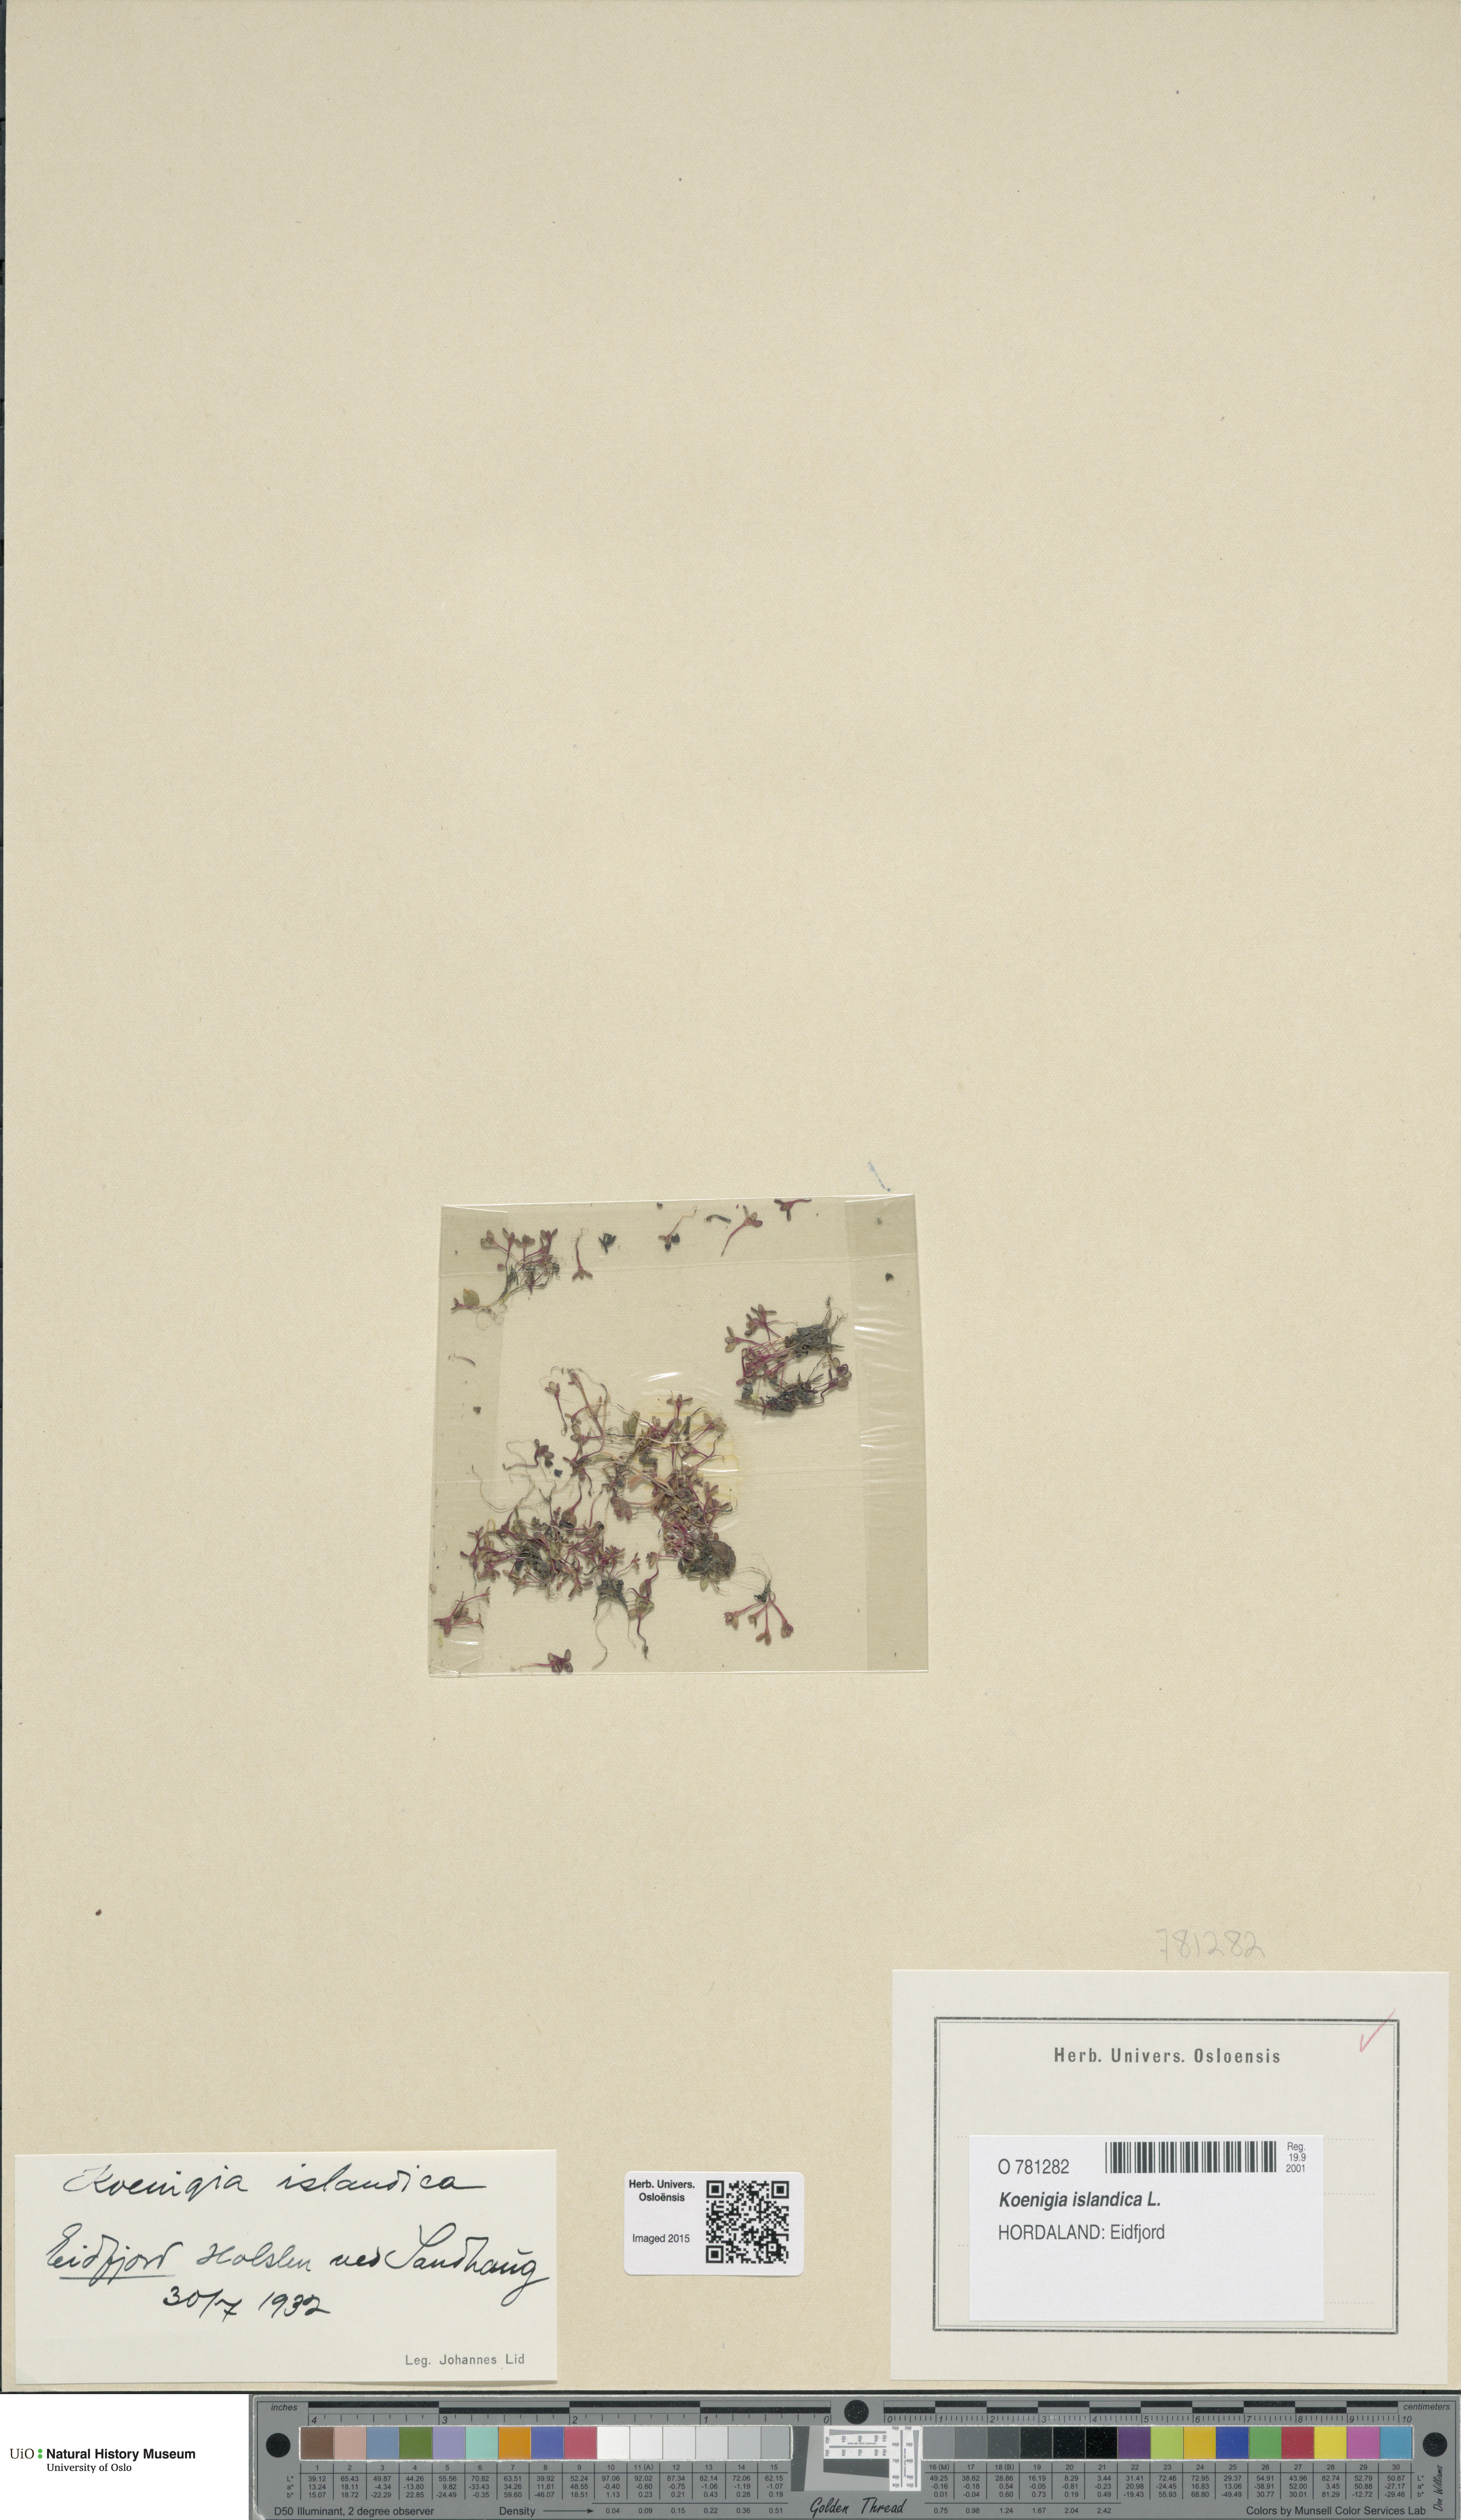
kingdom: Plantae
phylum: Tracheophyta
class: Magnoliopsida
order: Caryophyllales
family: Polygonaceae
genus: Koenigia
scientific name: Koenigia islandica
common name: Iceland-purslane
